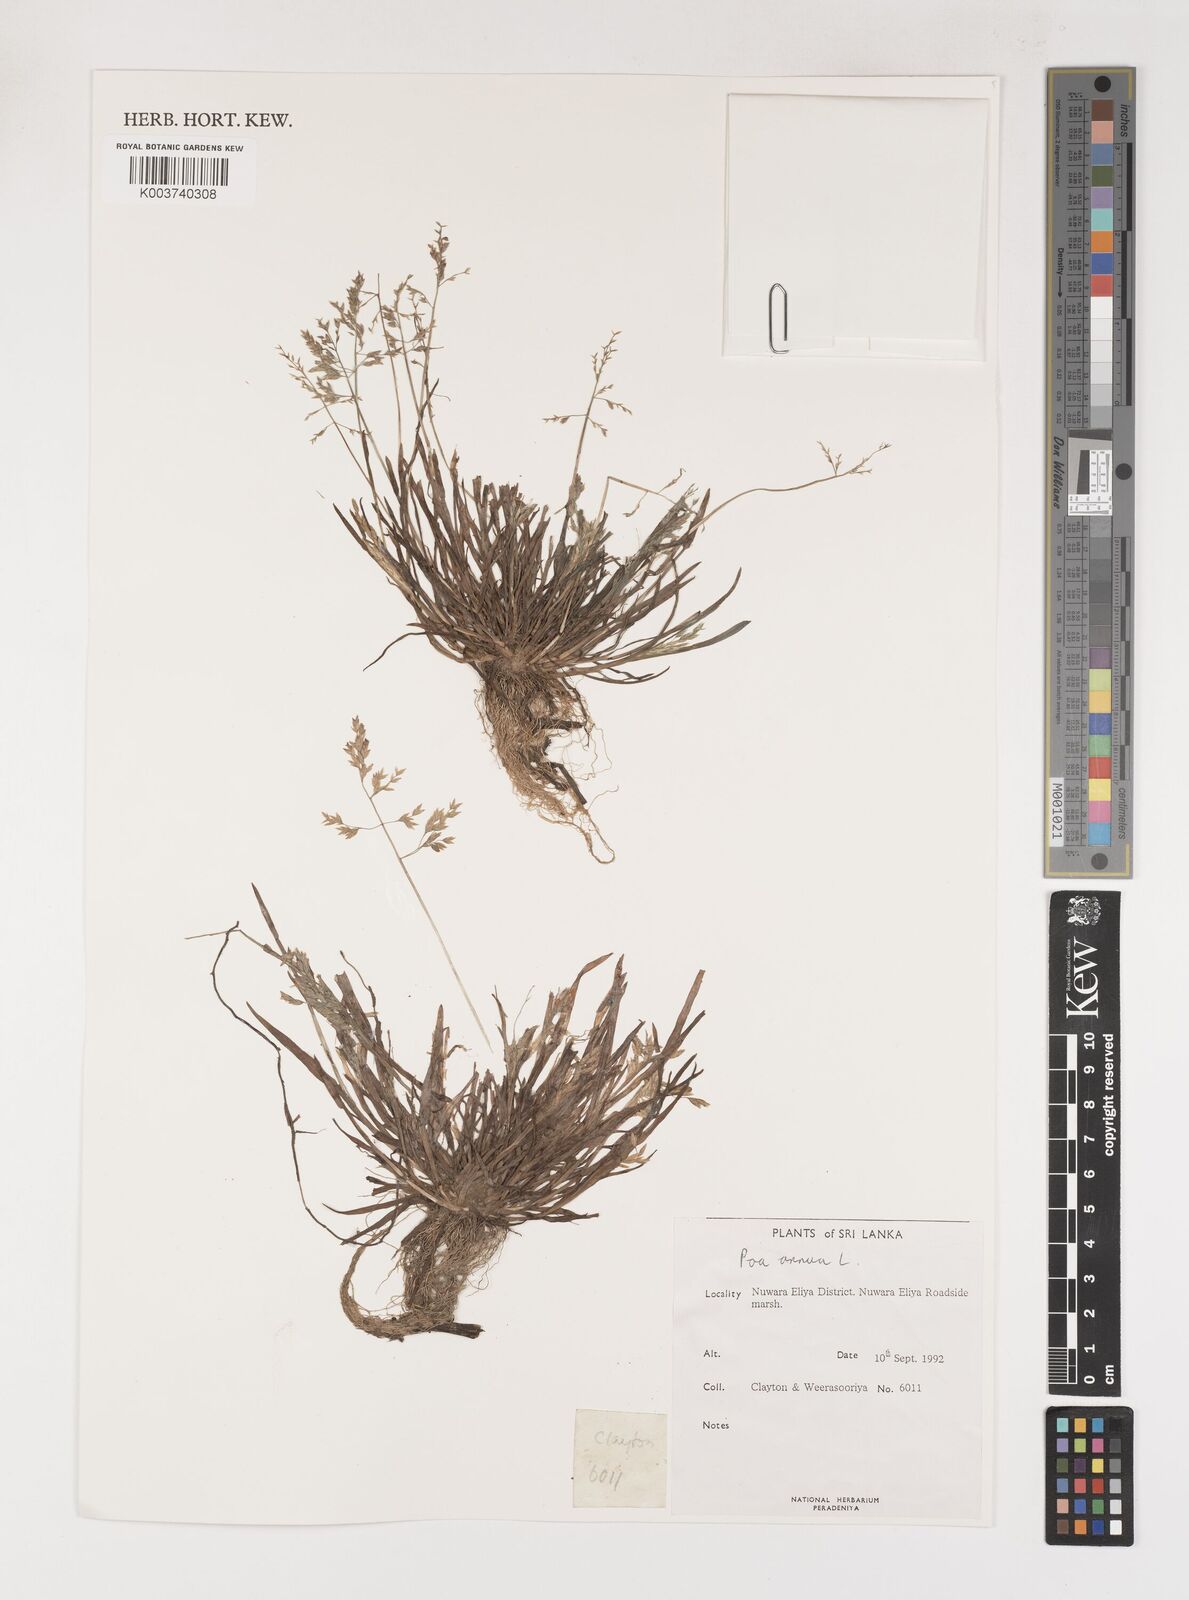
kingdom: Plantae
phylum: Tracheophyta
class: Liliopsida
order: Poales
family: Poaceae
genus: Poa
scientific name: Poa annua
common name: Annual bluegrass
